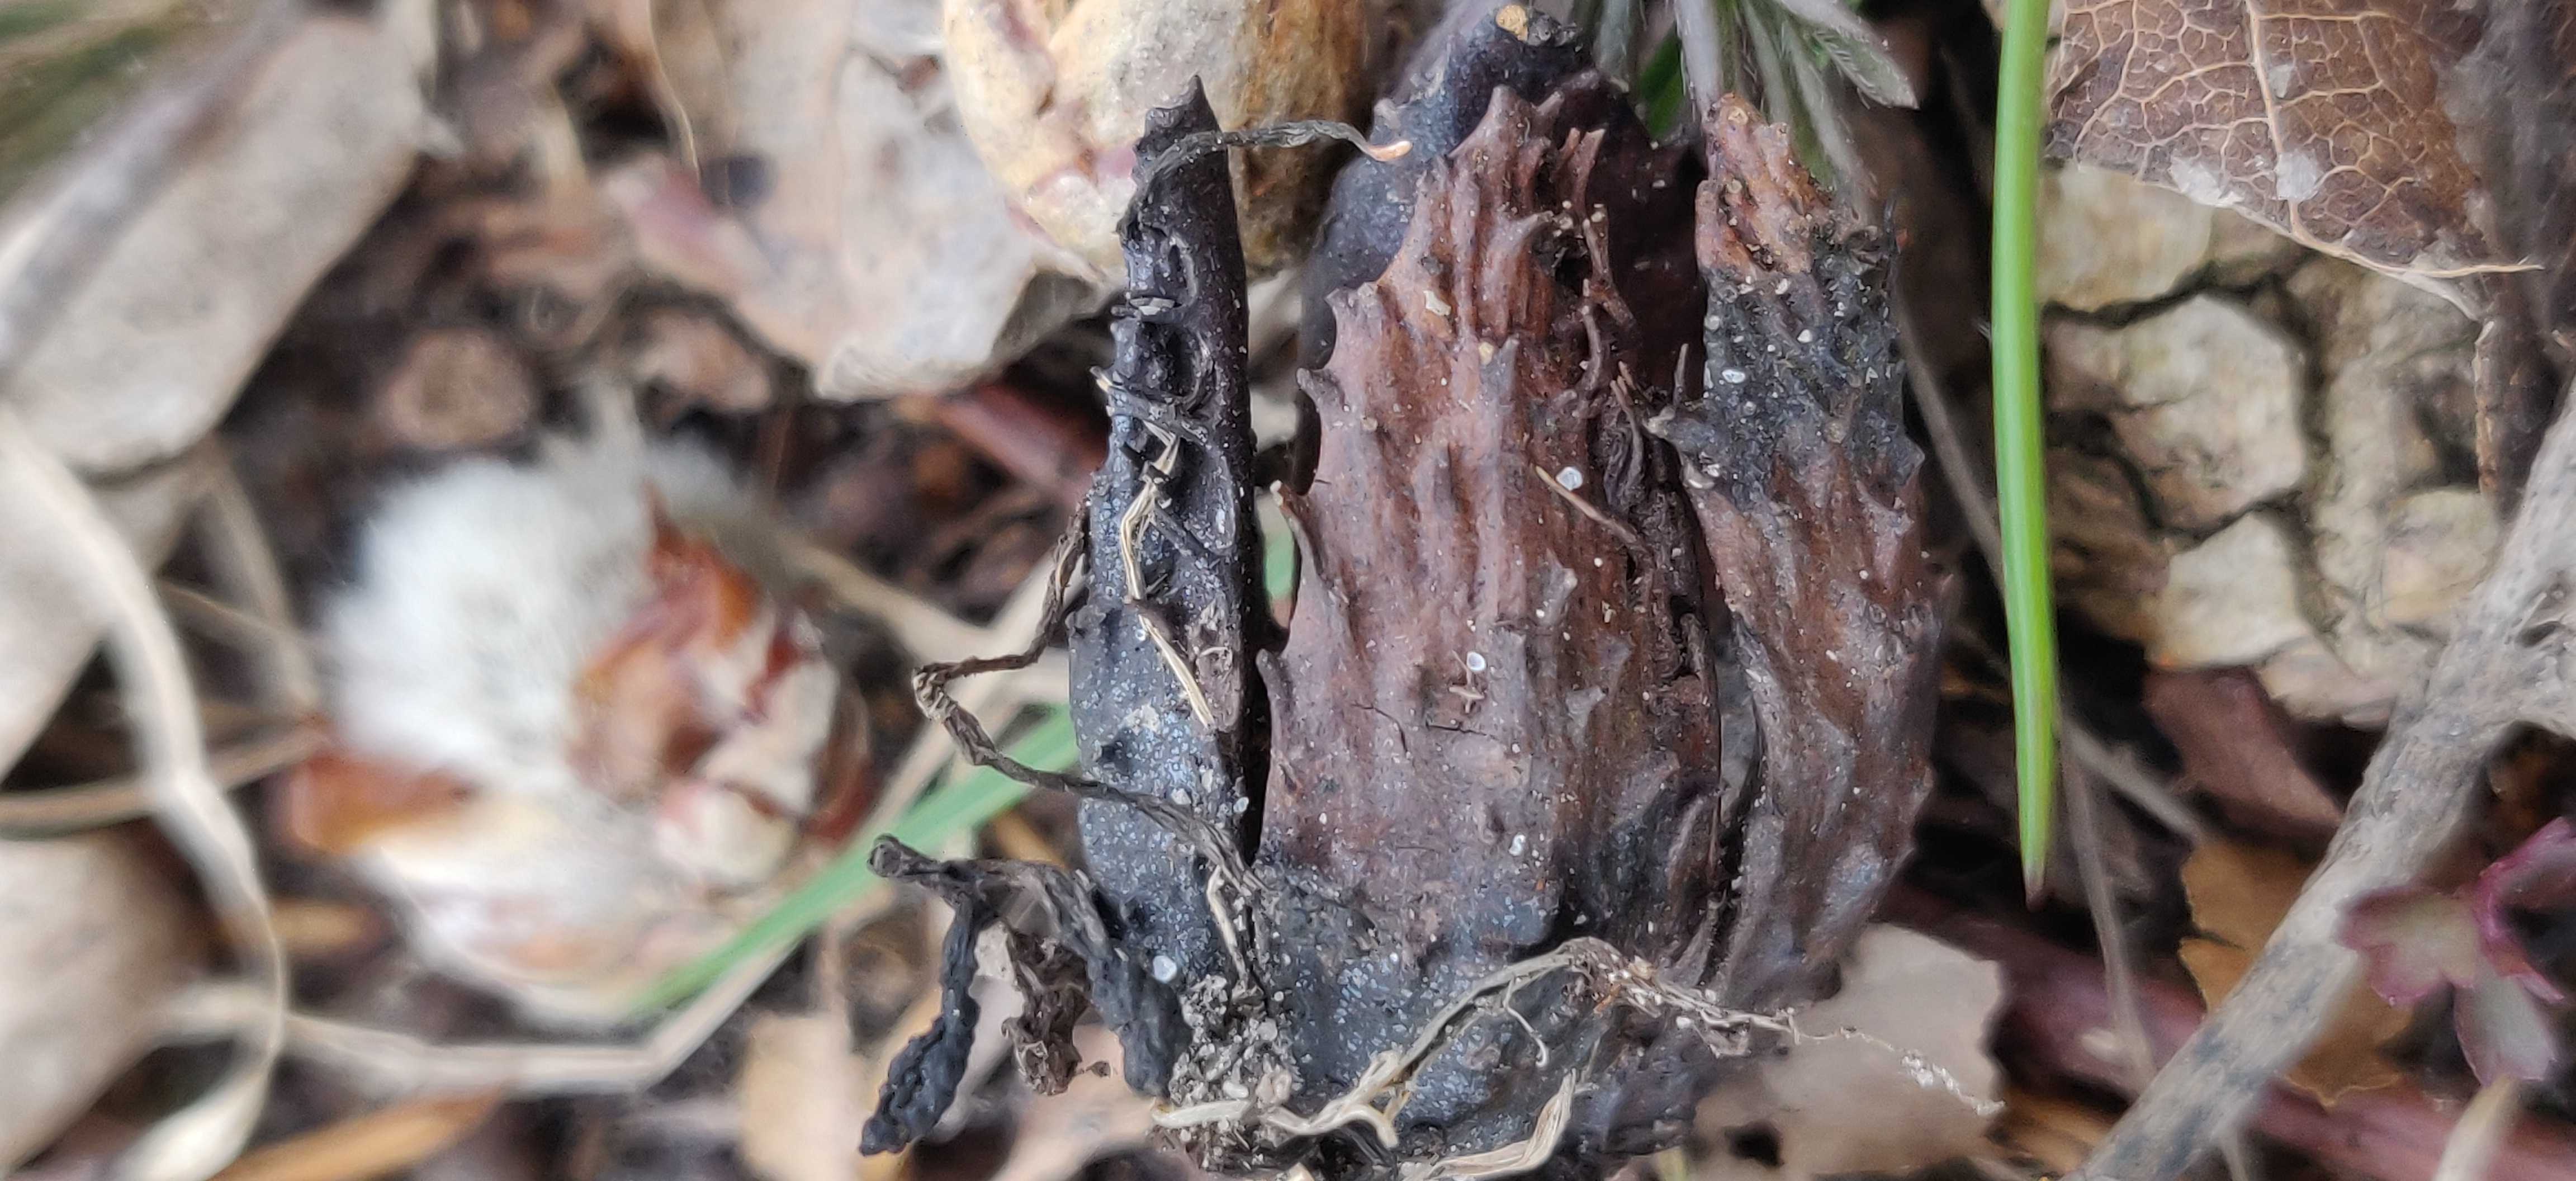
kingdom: Fungi
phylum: Ascomycota
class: Sordariomycetes
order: Xylariales
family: Xylariaceae
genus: Xylaria
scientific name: Xylaria carpophila
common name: bogskål-stødsvamp
